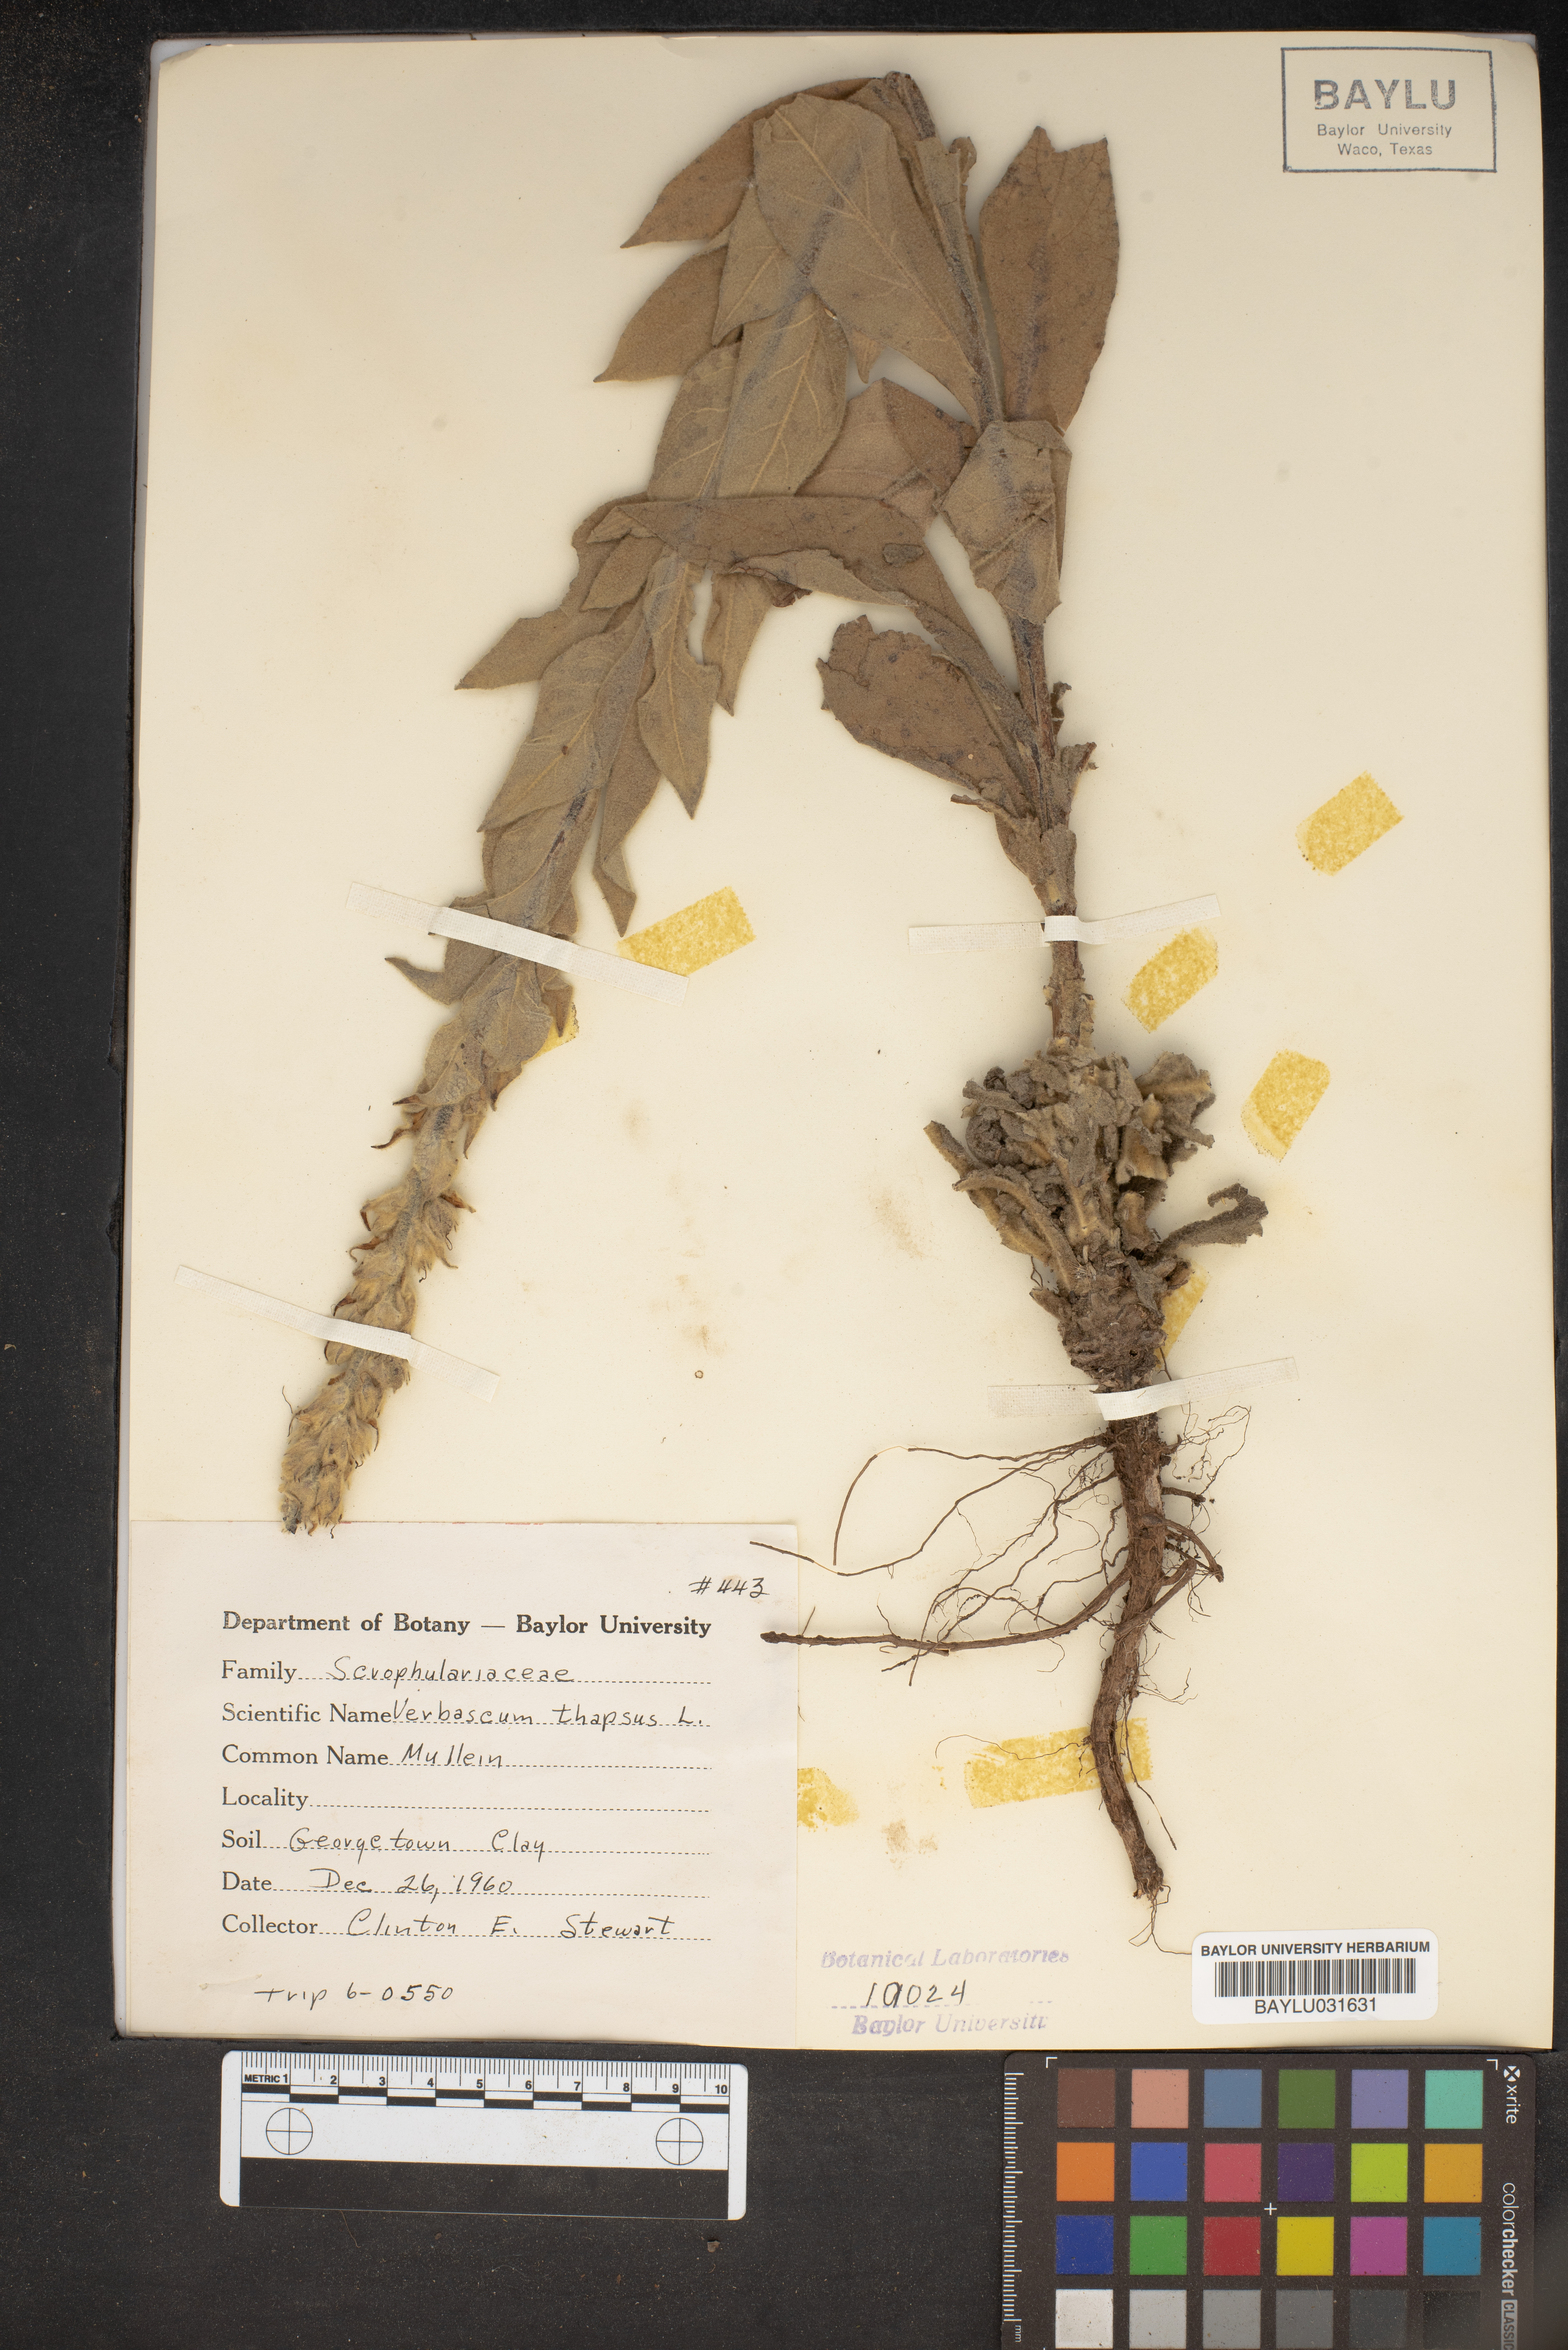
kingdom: Plantae
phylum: Tracheophyta
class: Magnoliopsida
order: Lamiales
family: Scrophulariaceae
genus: Verbascum
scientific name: Verbascum thapsus
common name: Common mullein
